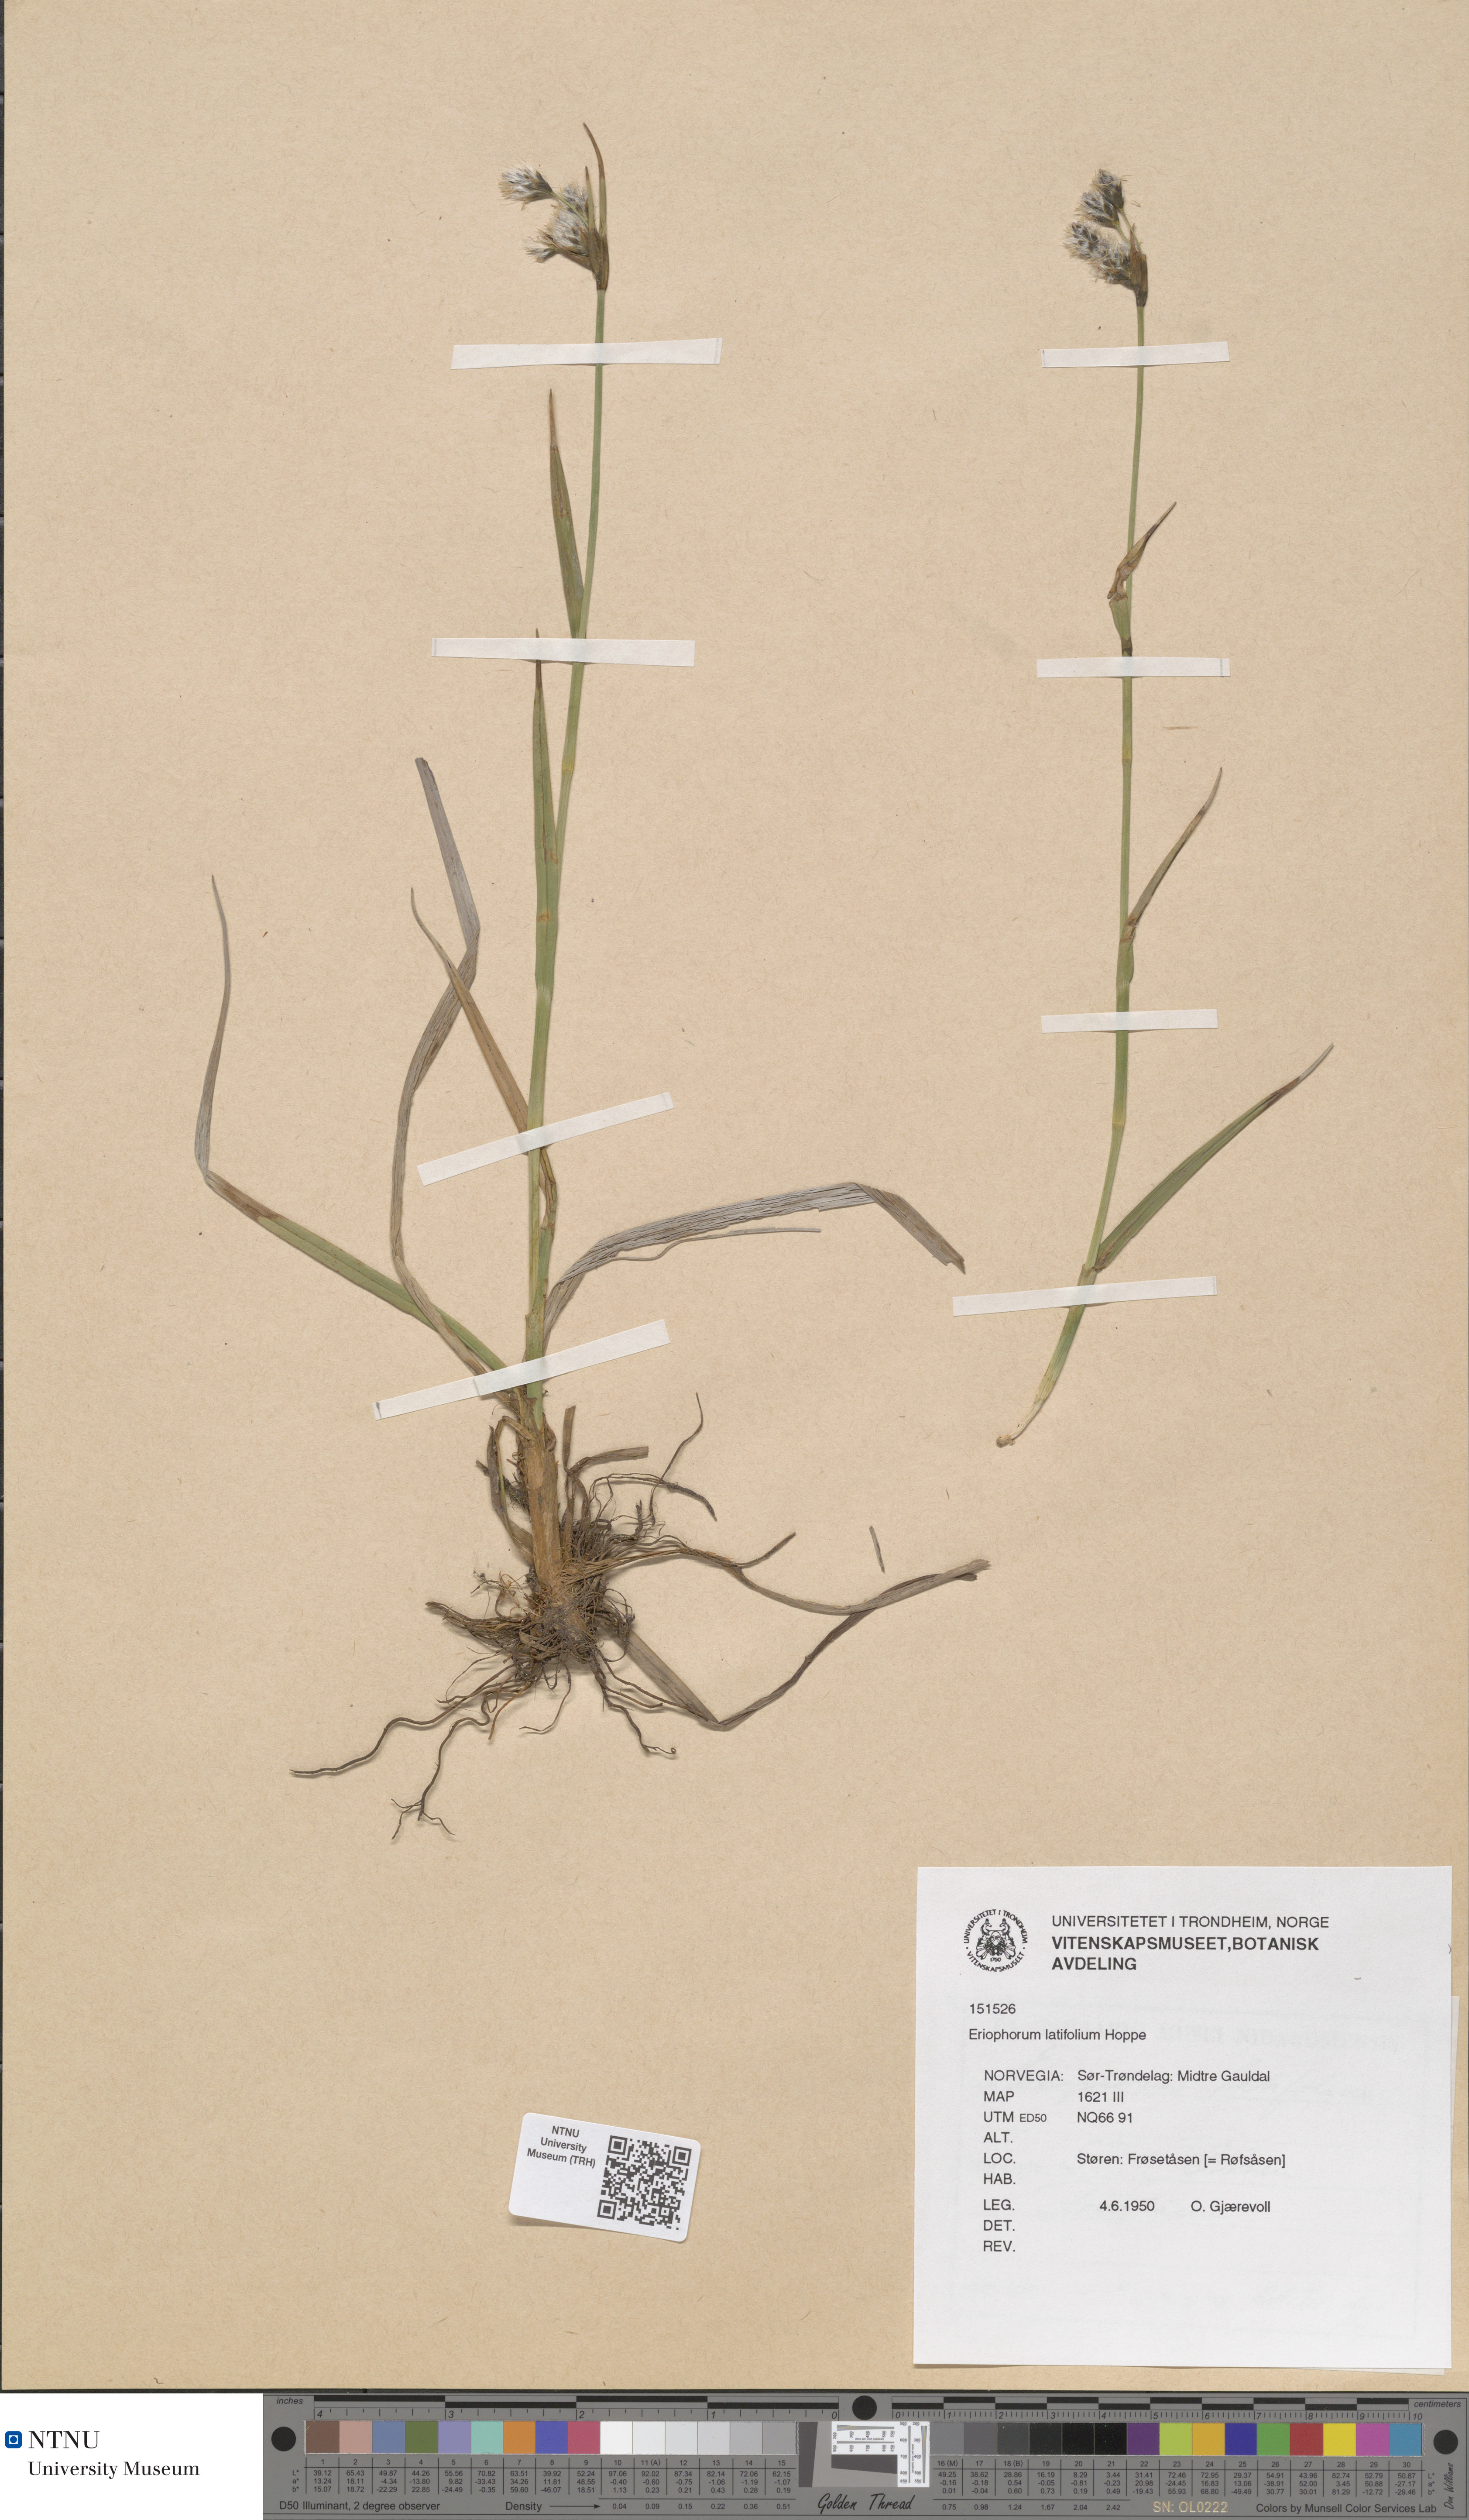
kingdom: Plantae
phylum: Tracheophyta
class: Liliopsida
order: Poales
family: Cyperaceae
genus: Eriophorum
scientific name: Eriophorum latifolium
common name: Broad-leaved cottongrass
